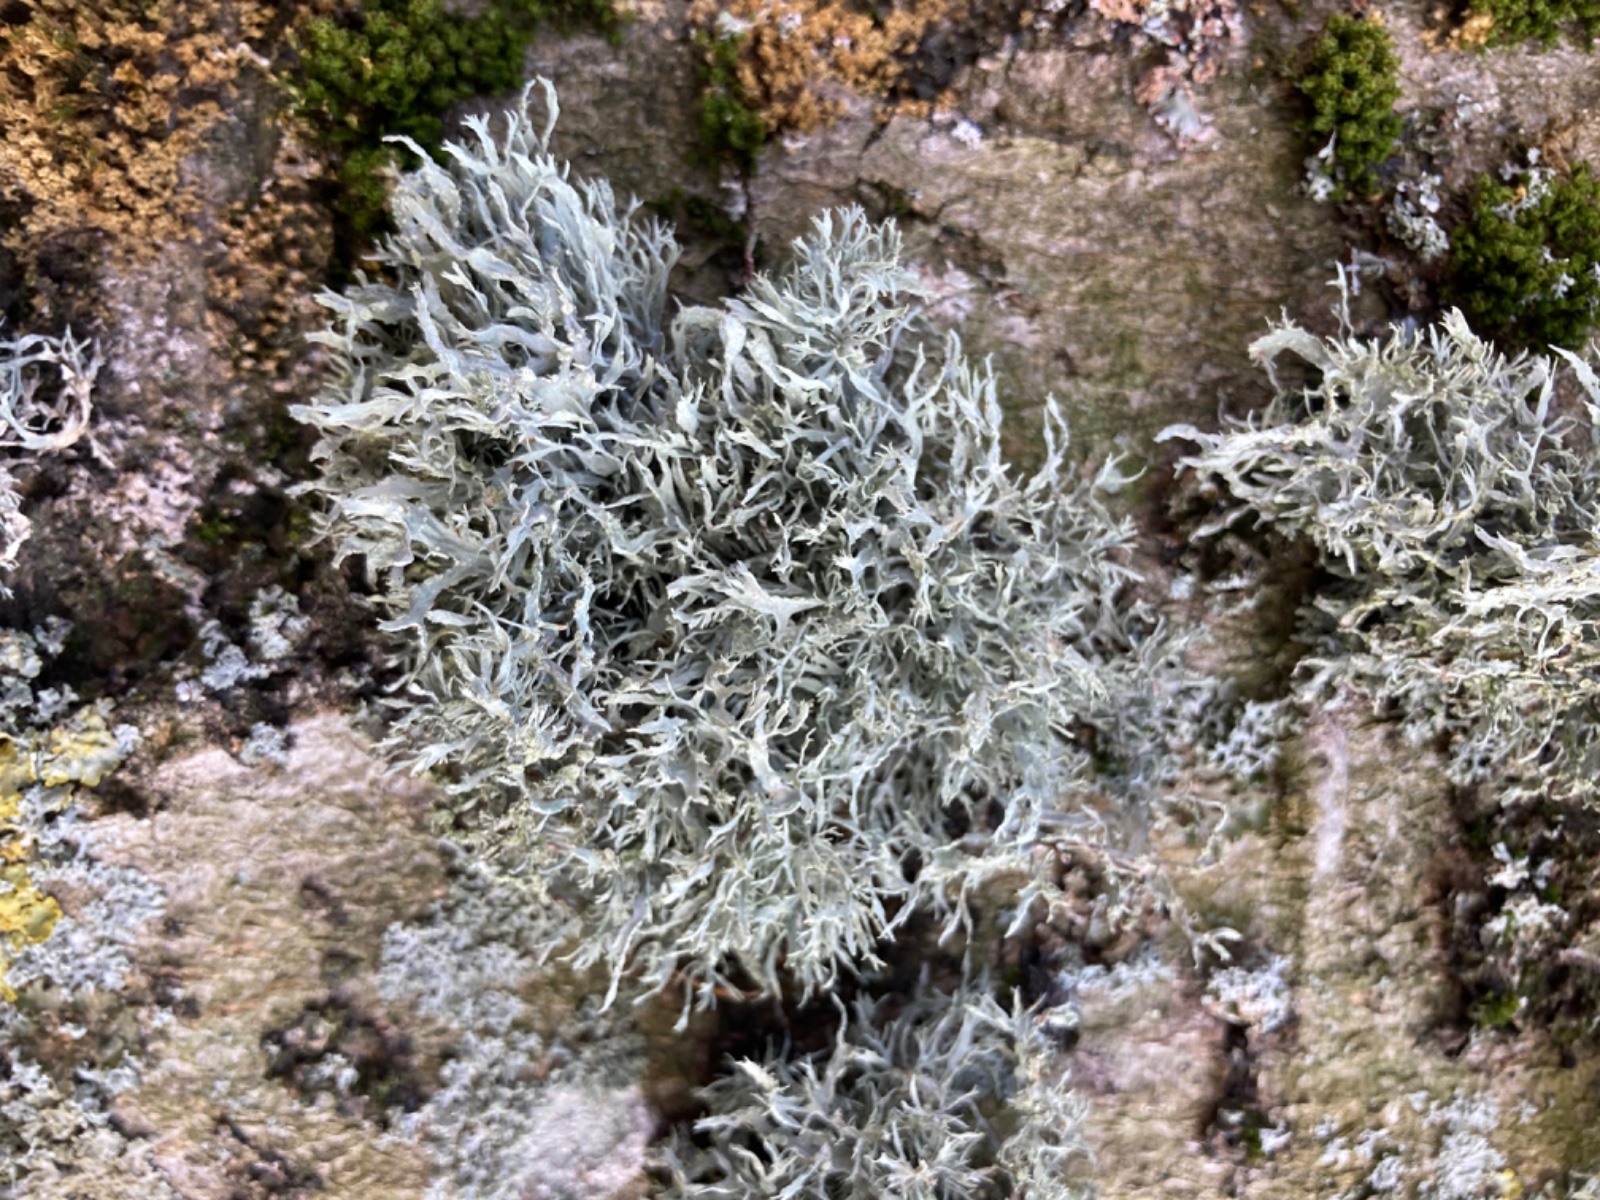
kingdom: Fungi
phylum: Ascomycota
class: Lecanoromycetes
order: Lecanorales
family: Ramalinaceae
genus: Ramalina
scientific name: Ramalina farinacea
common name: melet grenlav
